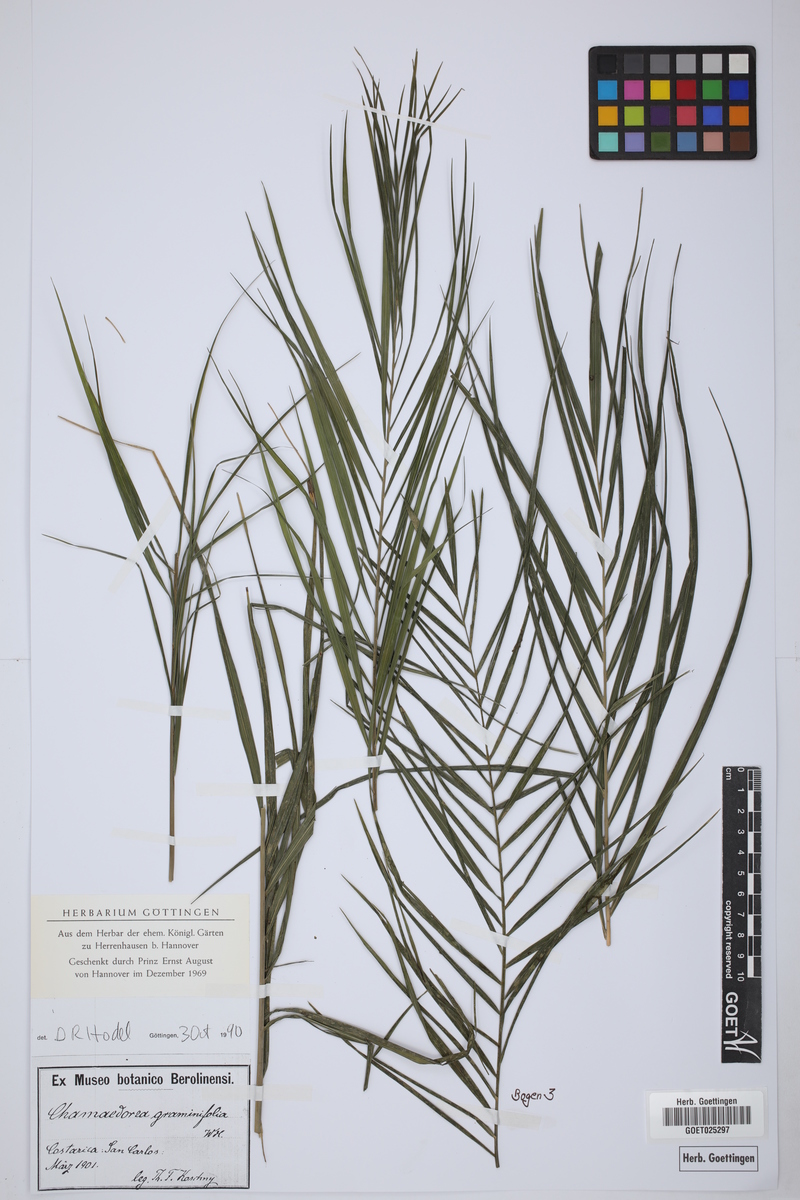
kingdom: Plantae
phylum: Tracheophyta
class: Liliopsida
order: Arecales
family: Arecaceae
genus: Chamaedorea
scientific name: Chamaedorea graminifolia
